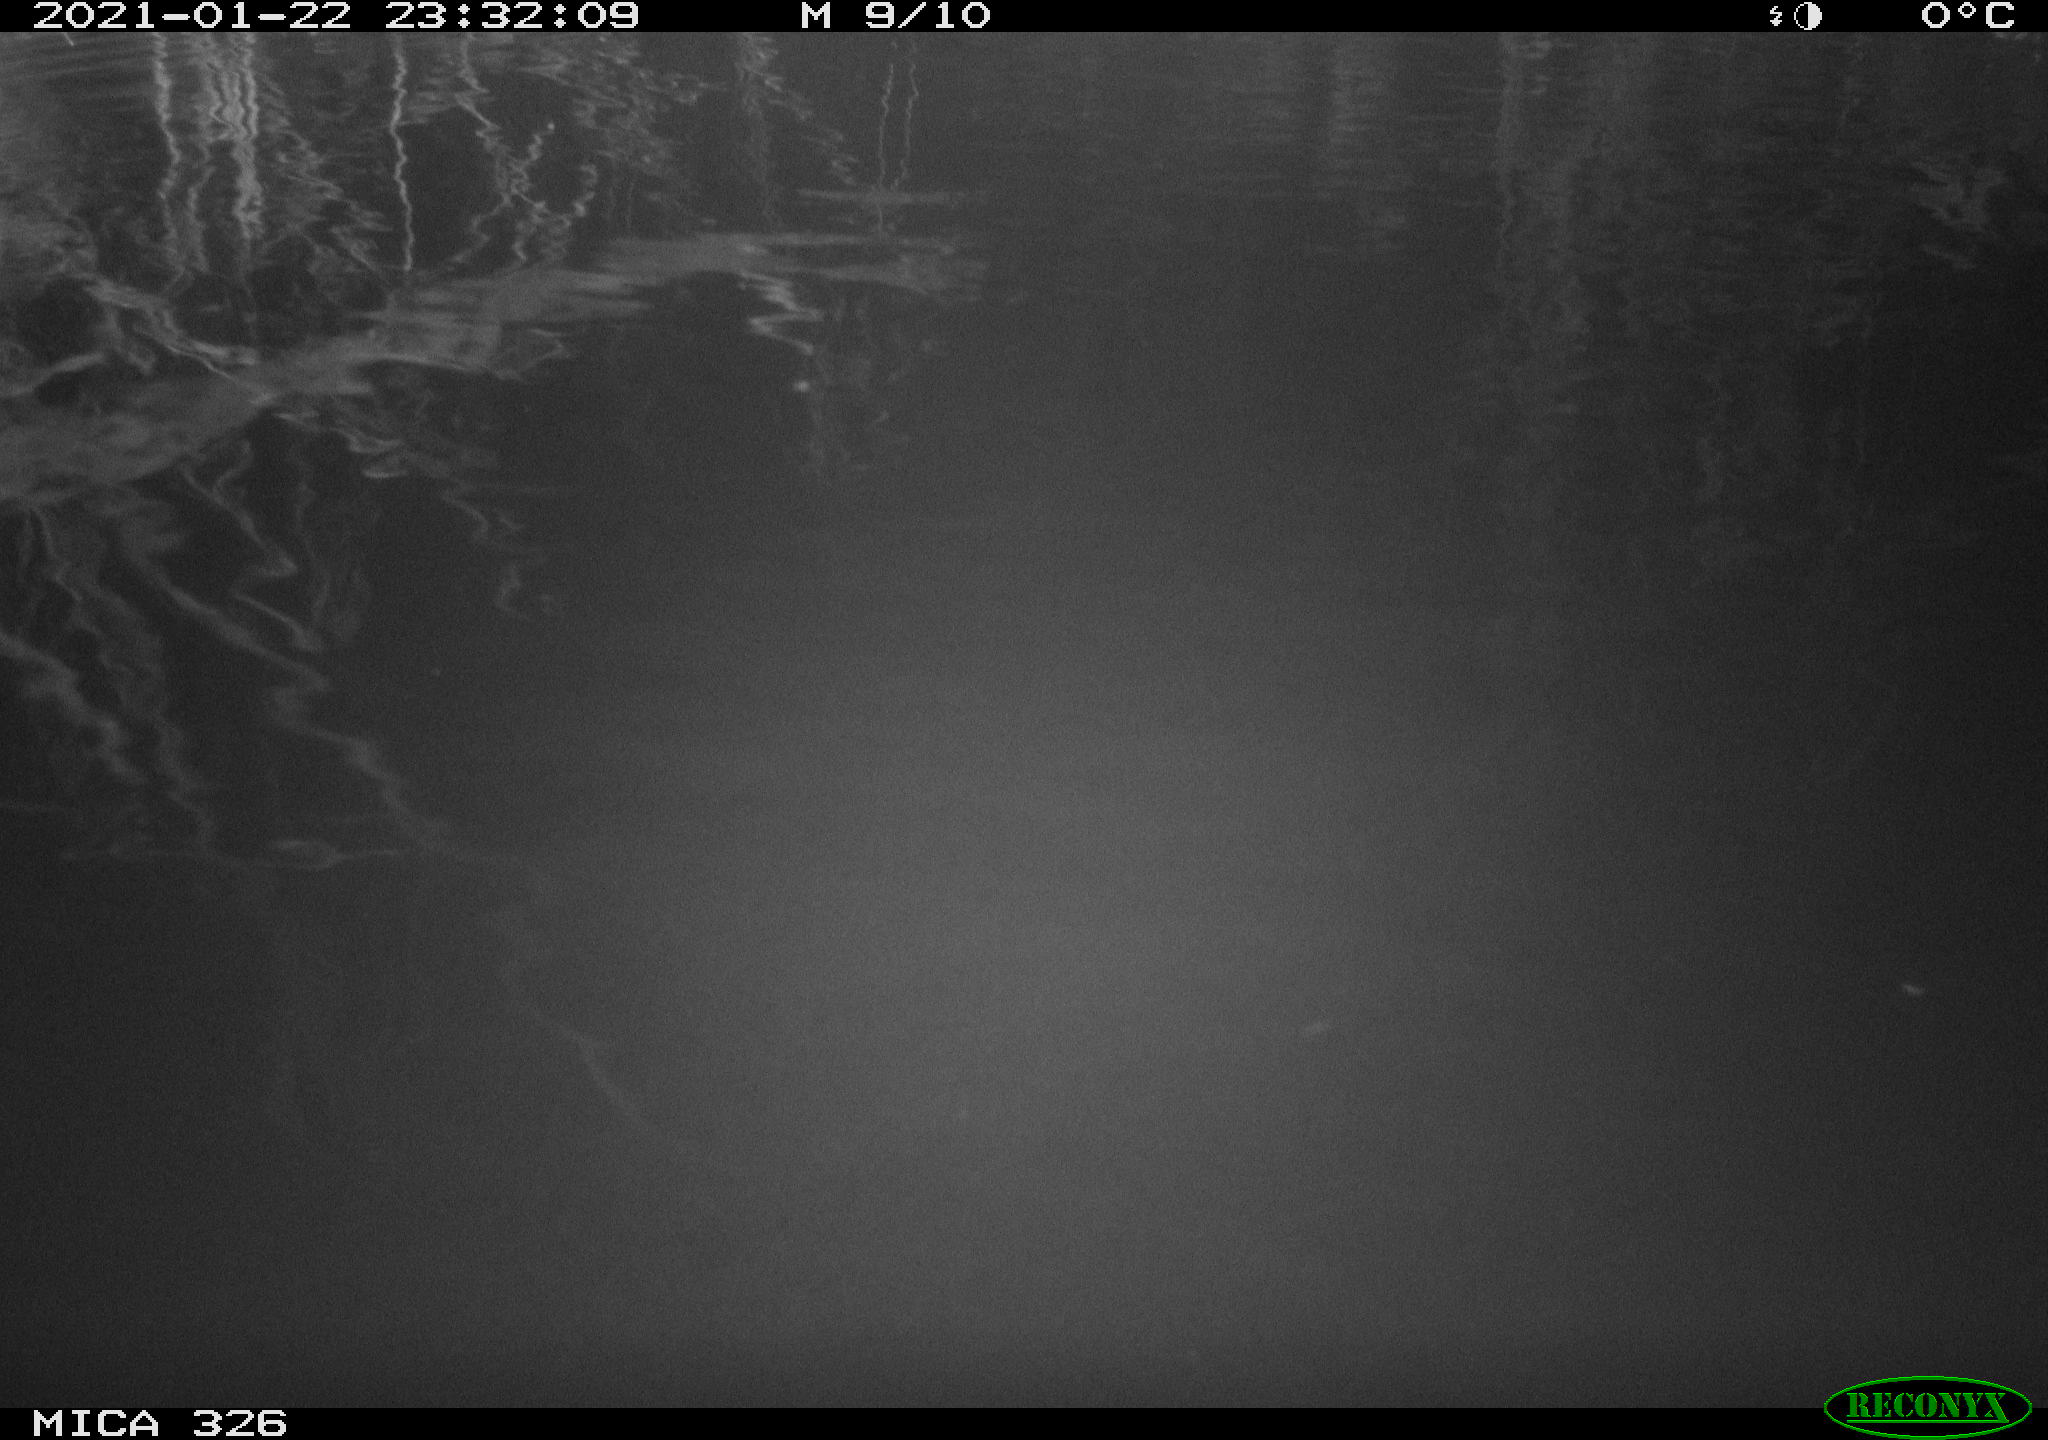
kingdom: Animalia
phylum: Chordata
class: Mammalia
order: Rodentia
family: Cricetidae
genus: Ondatra
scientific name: Ondatra zibethicus
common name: Muskrat
